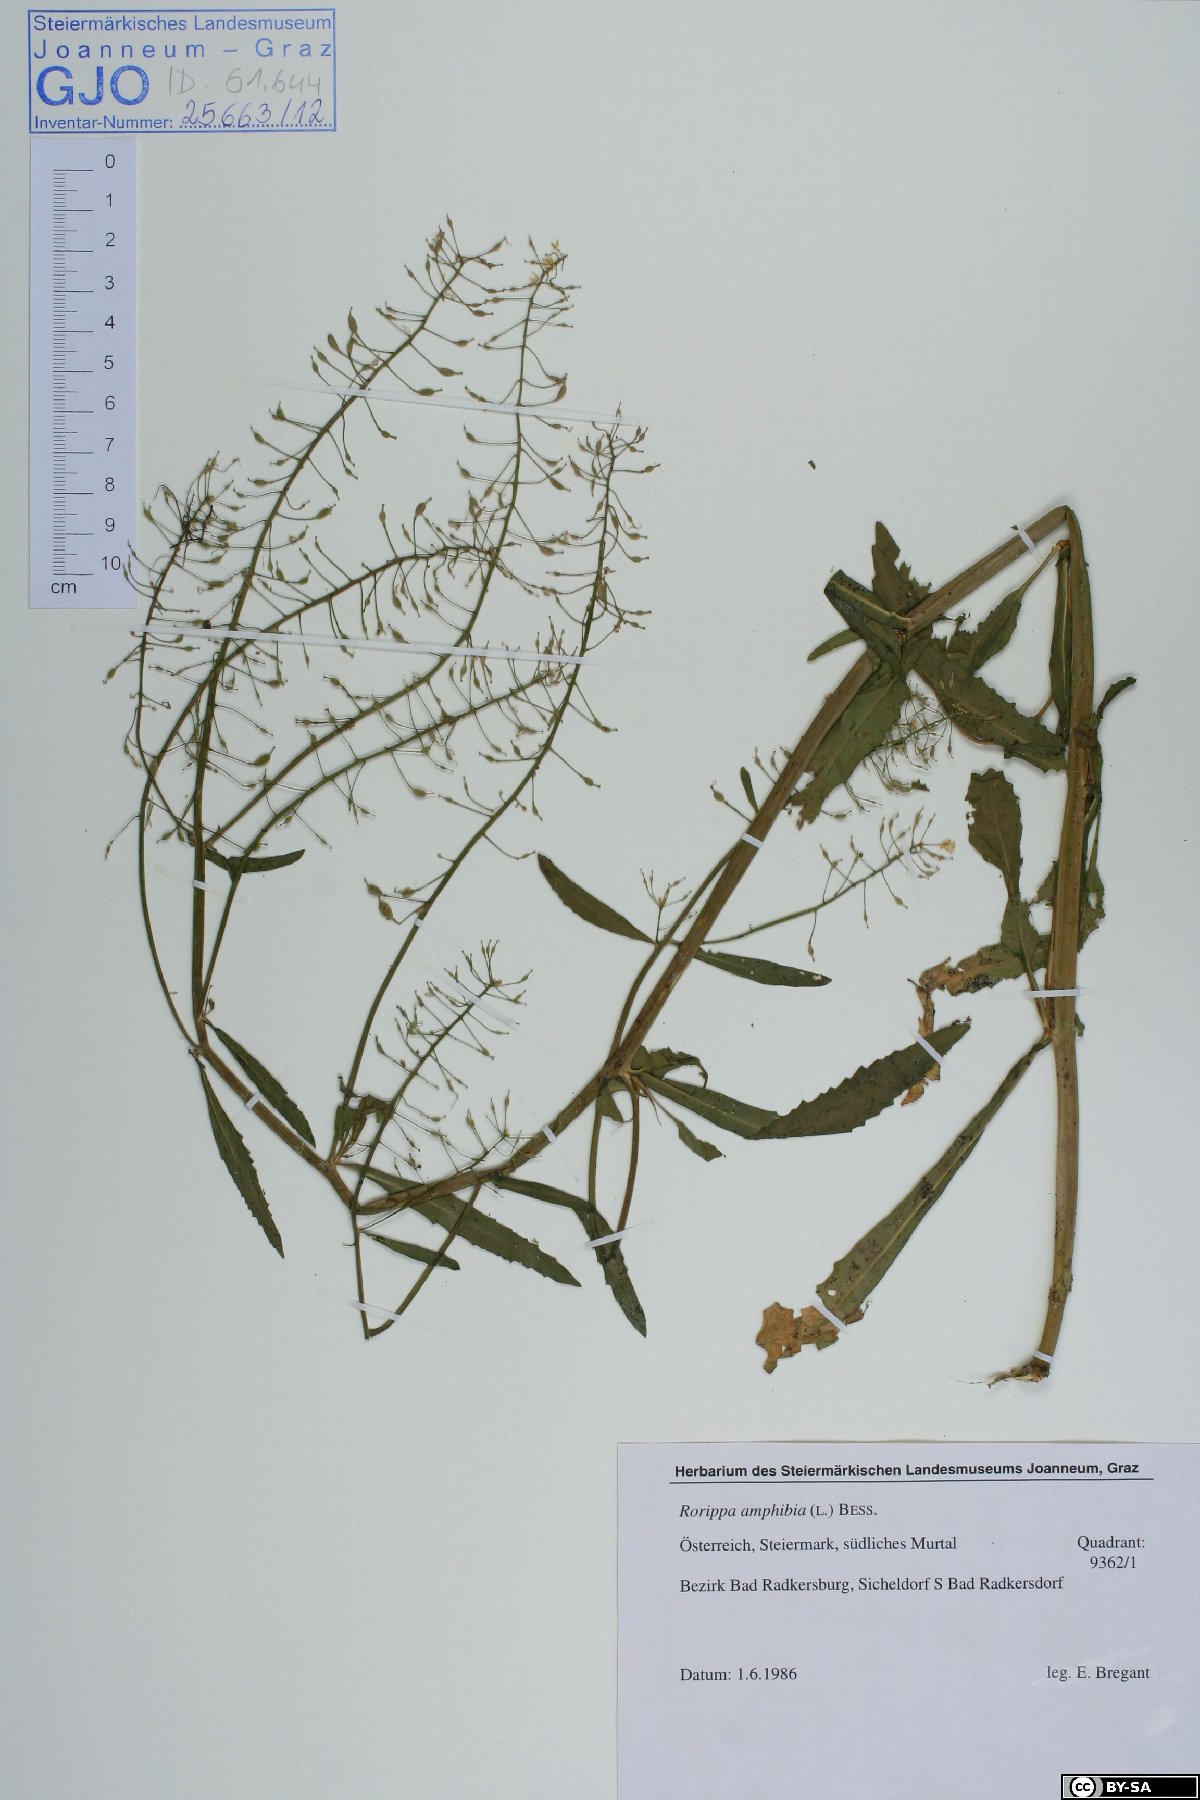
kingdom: Plantae
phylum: Tracheophyta
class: Magnoliopsida
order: Brassicales
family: Brassicaceae
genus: Rorippa
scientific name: Rorippa amphibia
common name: Great yellow-cress
